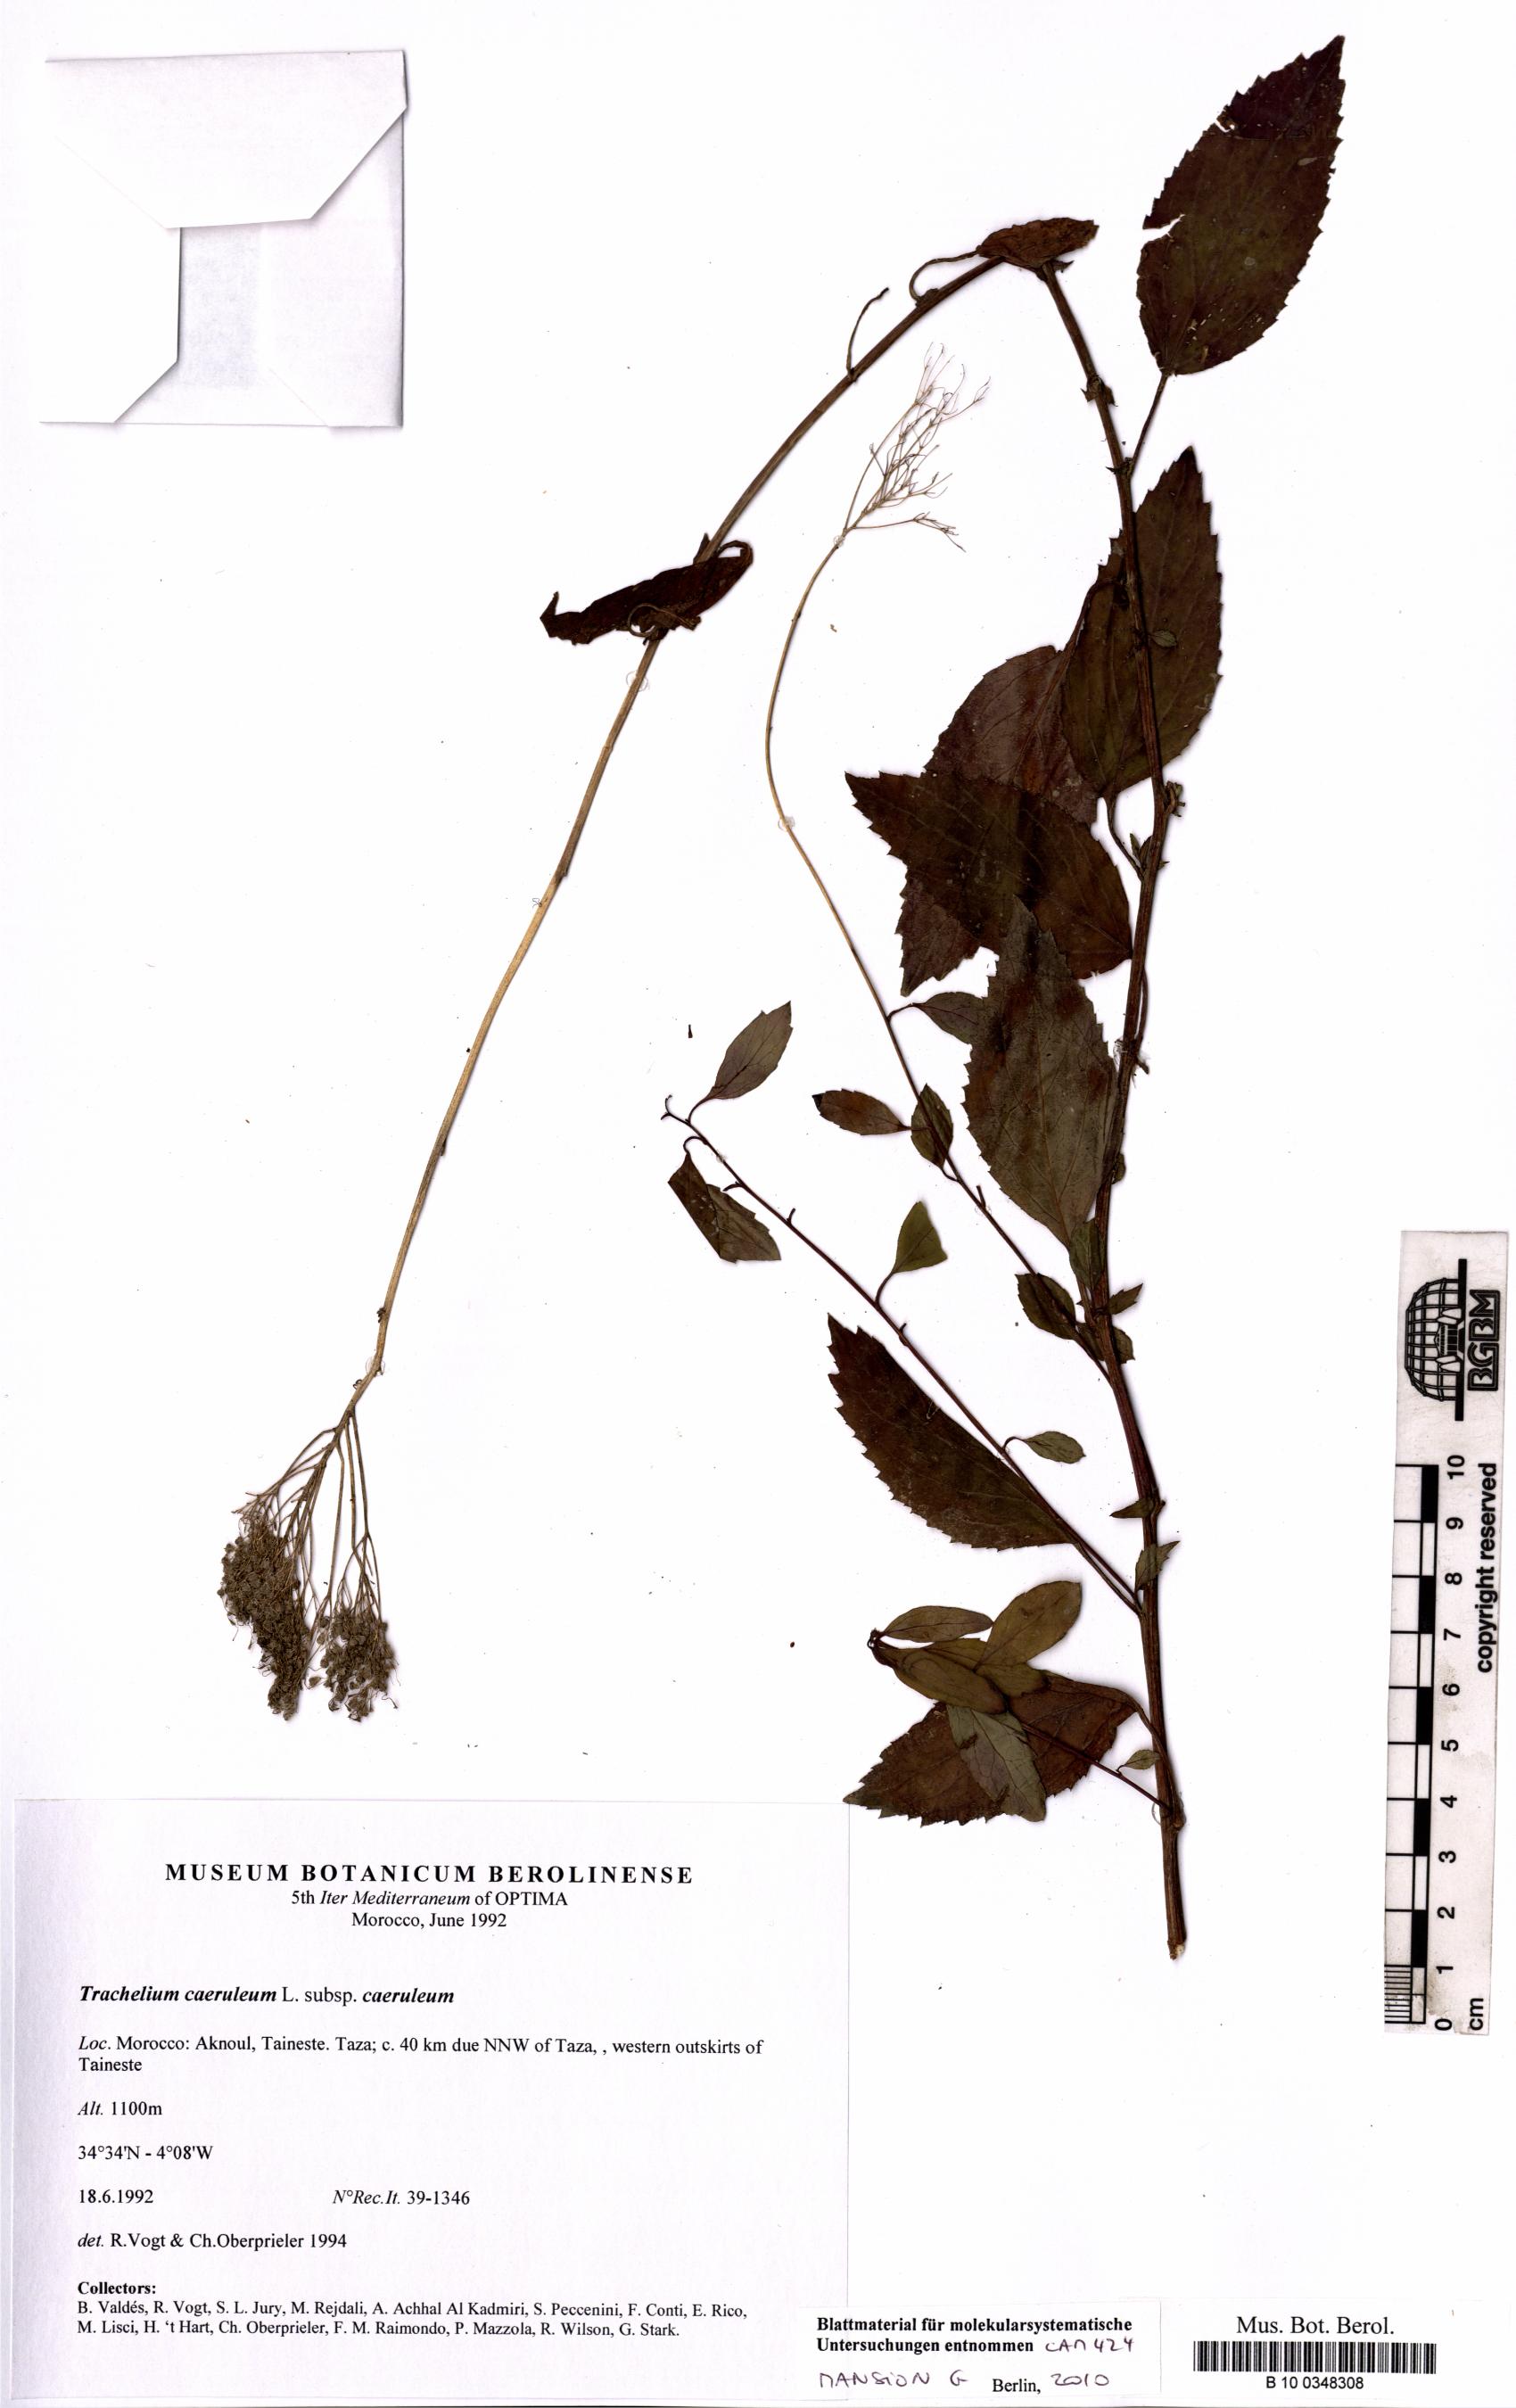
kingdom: Plantae
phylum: Tracheophyta
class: Magnoliopsida
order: Asterales
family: Campanulaceae
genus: Trachelium
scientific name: Trachelium caeruleum
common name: Throatwort
